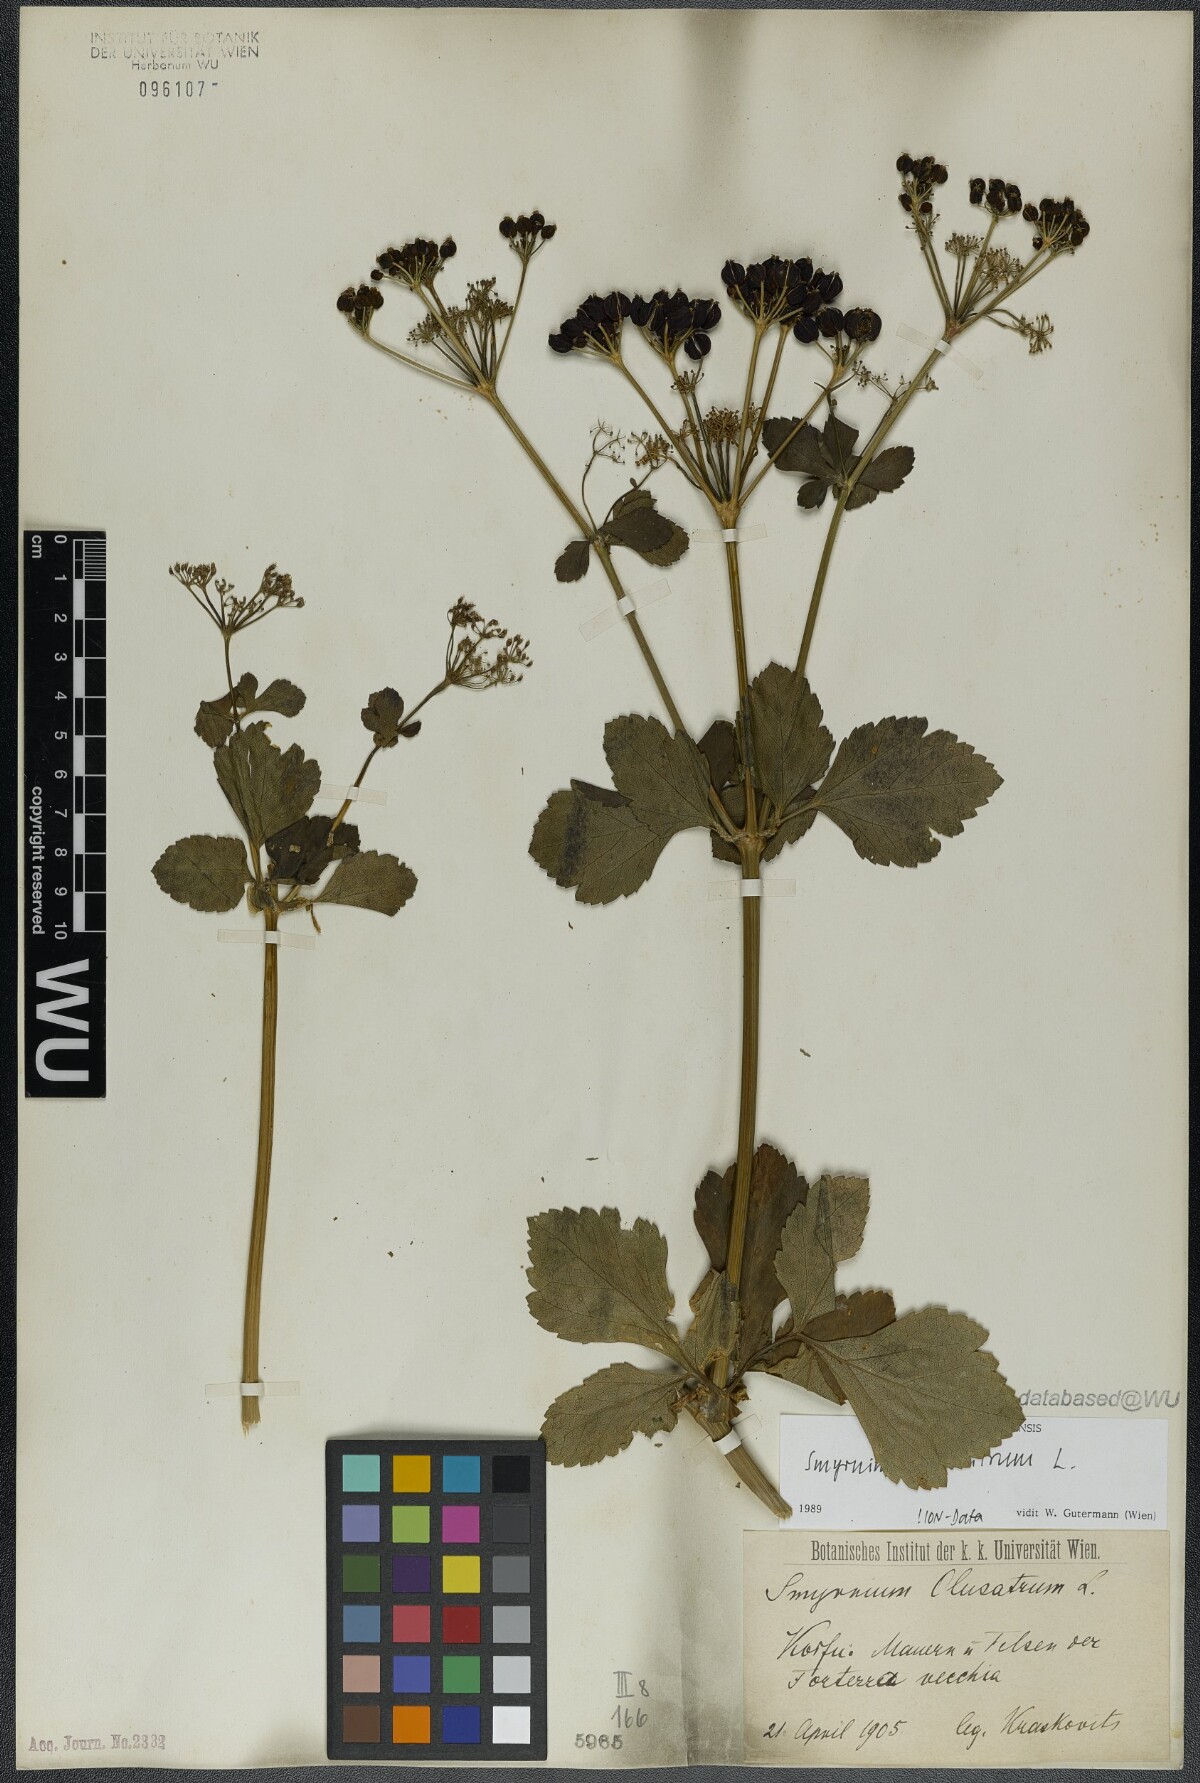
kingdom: Plantae
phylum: Tracheophyta
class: Magnoliopsida
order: Apiales
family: Apiaceae
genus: Smyrnium
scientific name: Smyrnium olusatrum
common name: Alexanders
